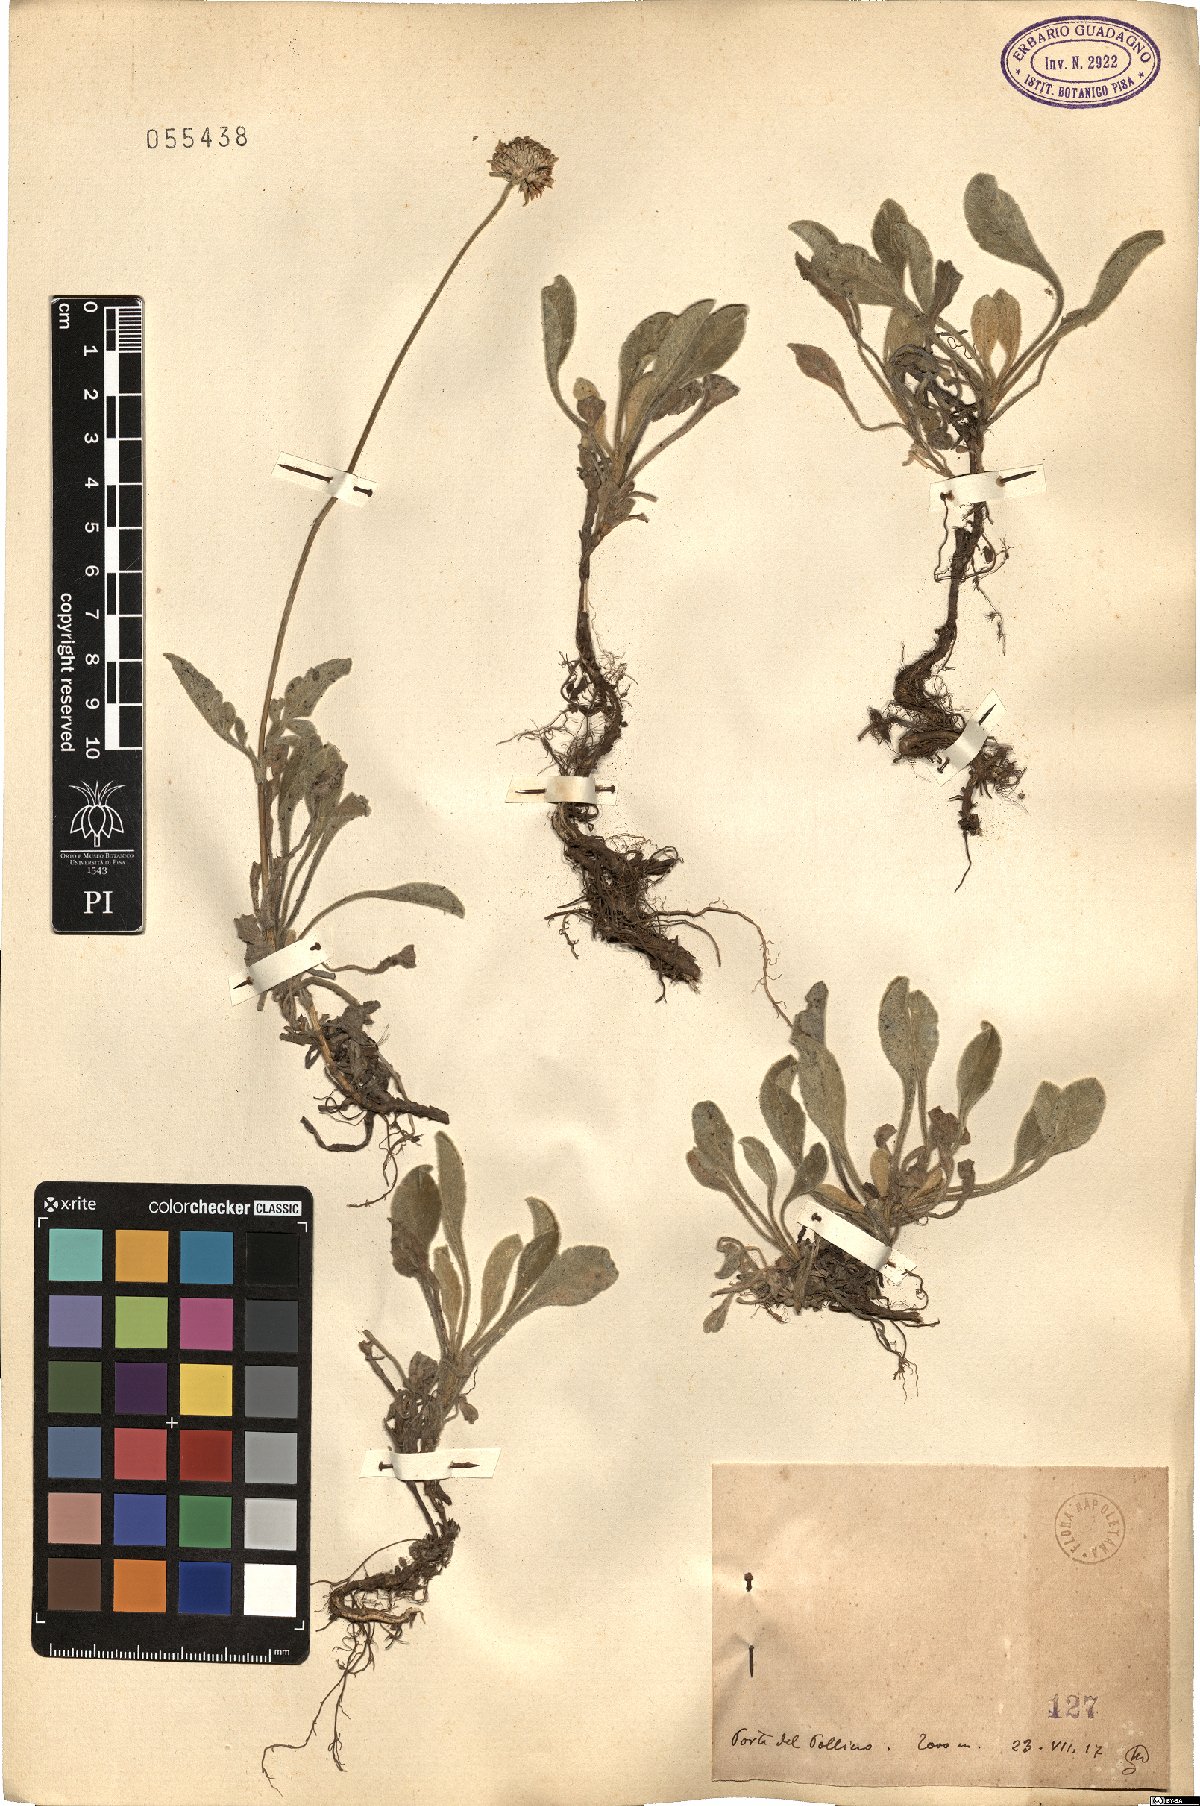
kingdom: Plantae
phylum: Tracheophyta
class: Magnoliopsida
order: Dipsacales
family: Caprifoliaceae
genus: Scabiosa
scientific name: Scabiosa
